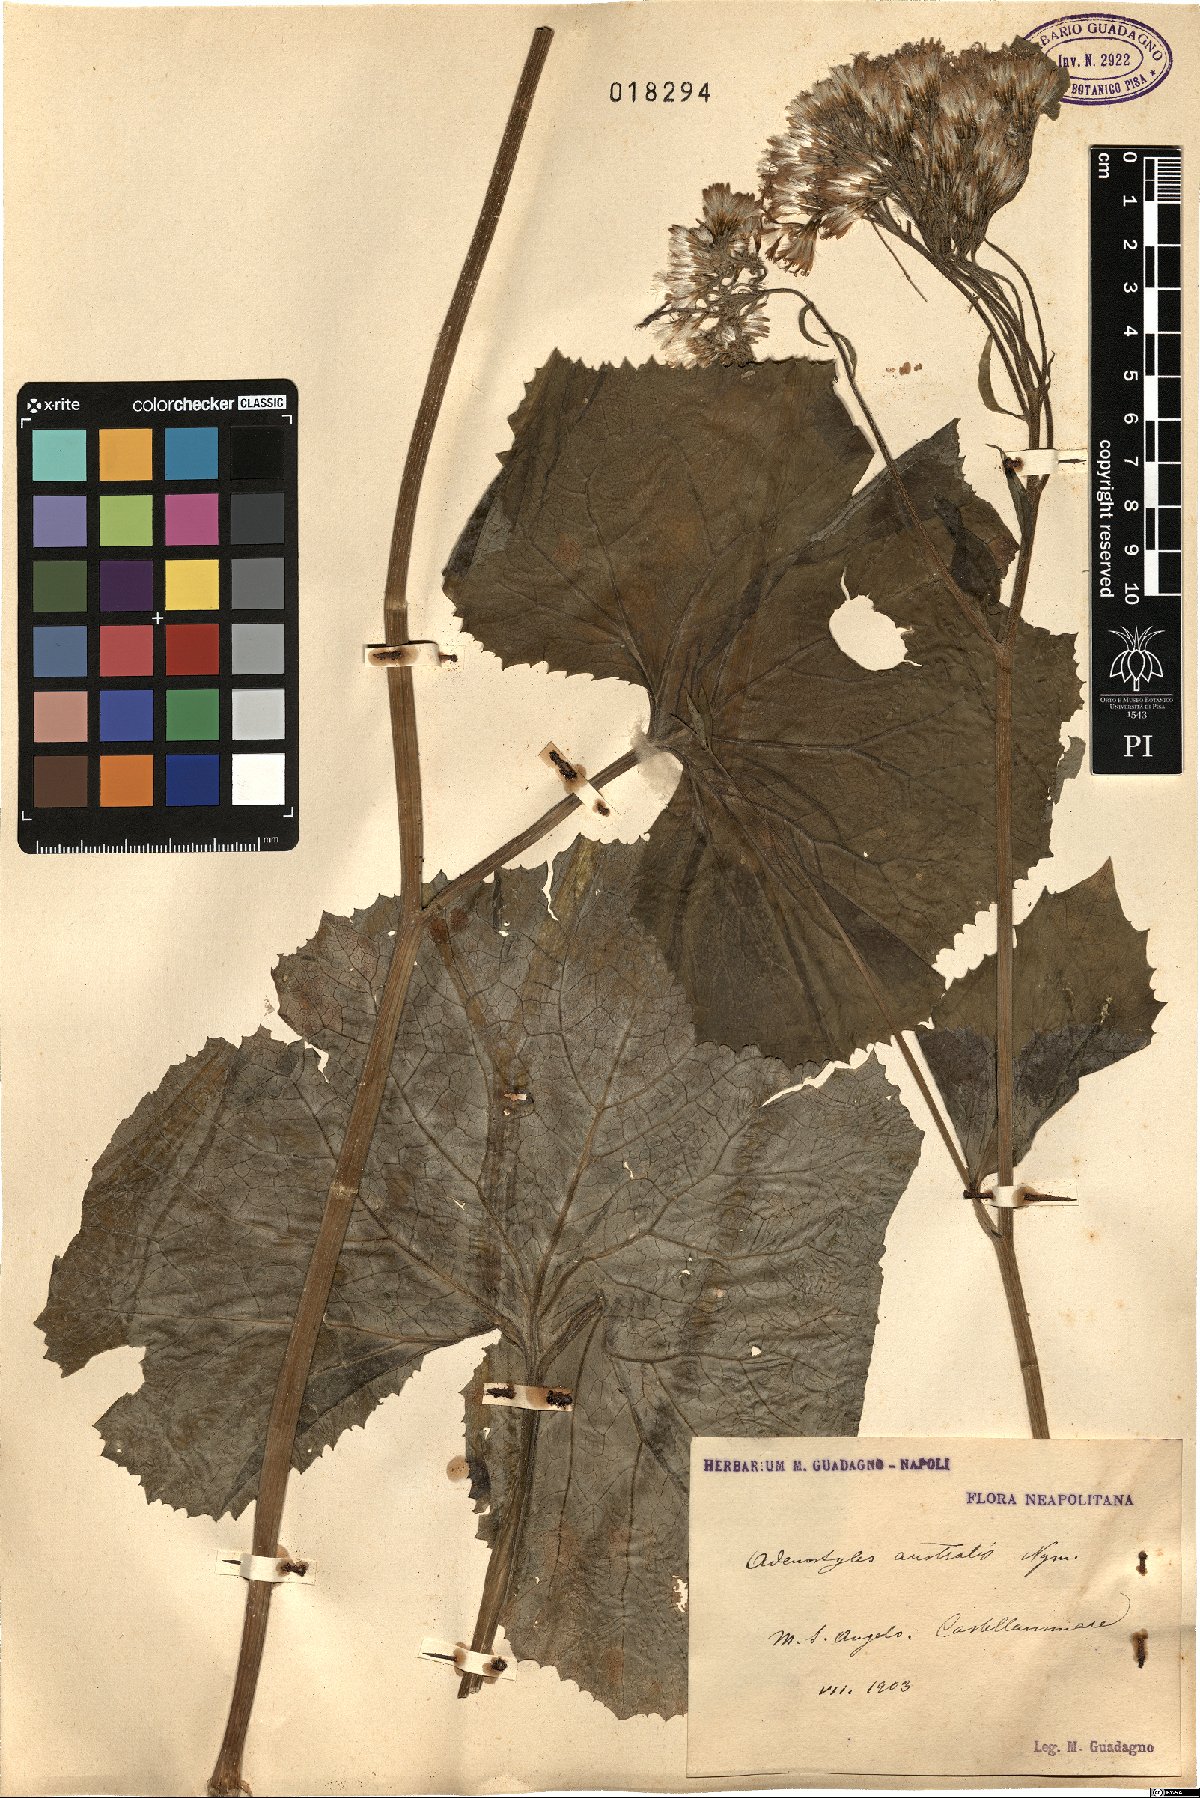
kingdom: Plantae
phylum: Tracheophyta
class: Magnoliopsida
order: Asterales
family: Asteraceae
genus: Adenostyles
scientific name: Adenostyles australis
